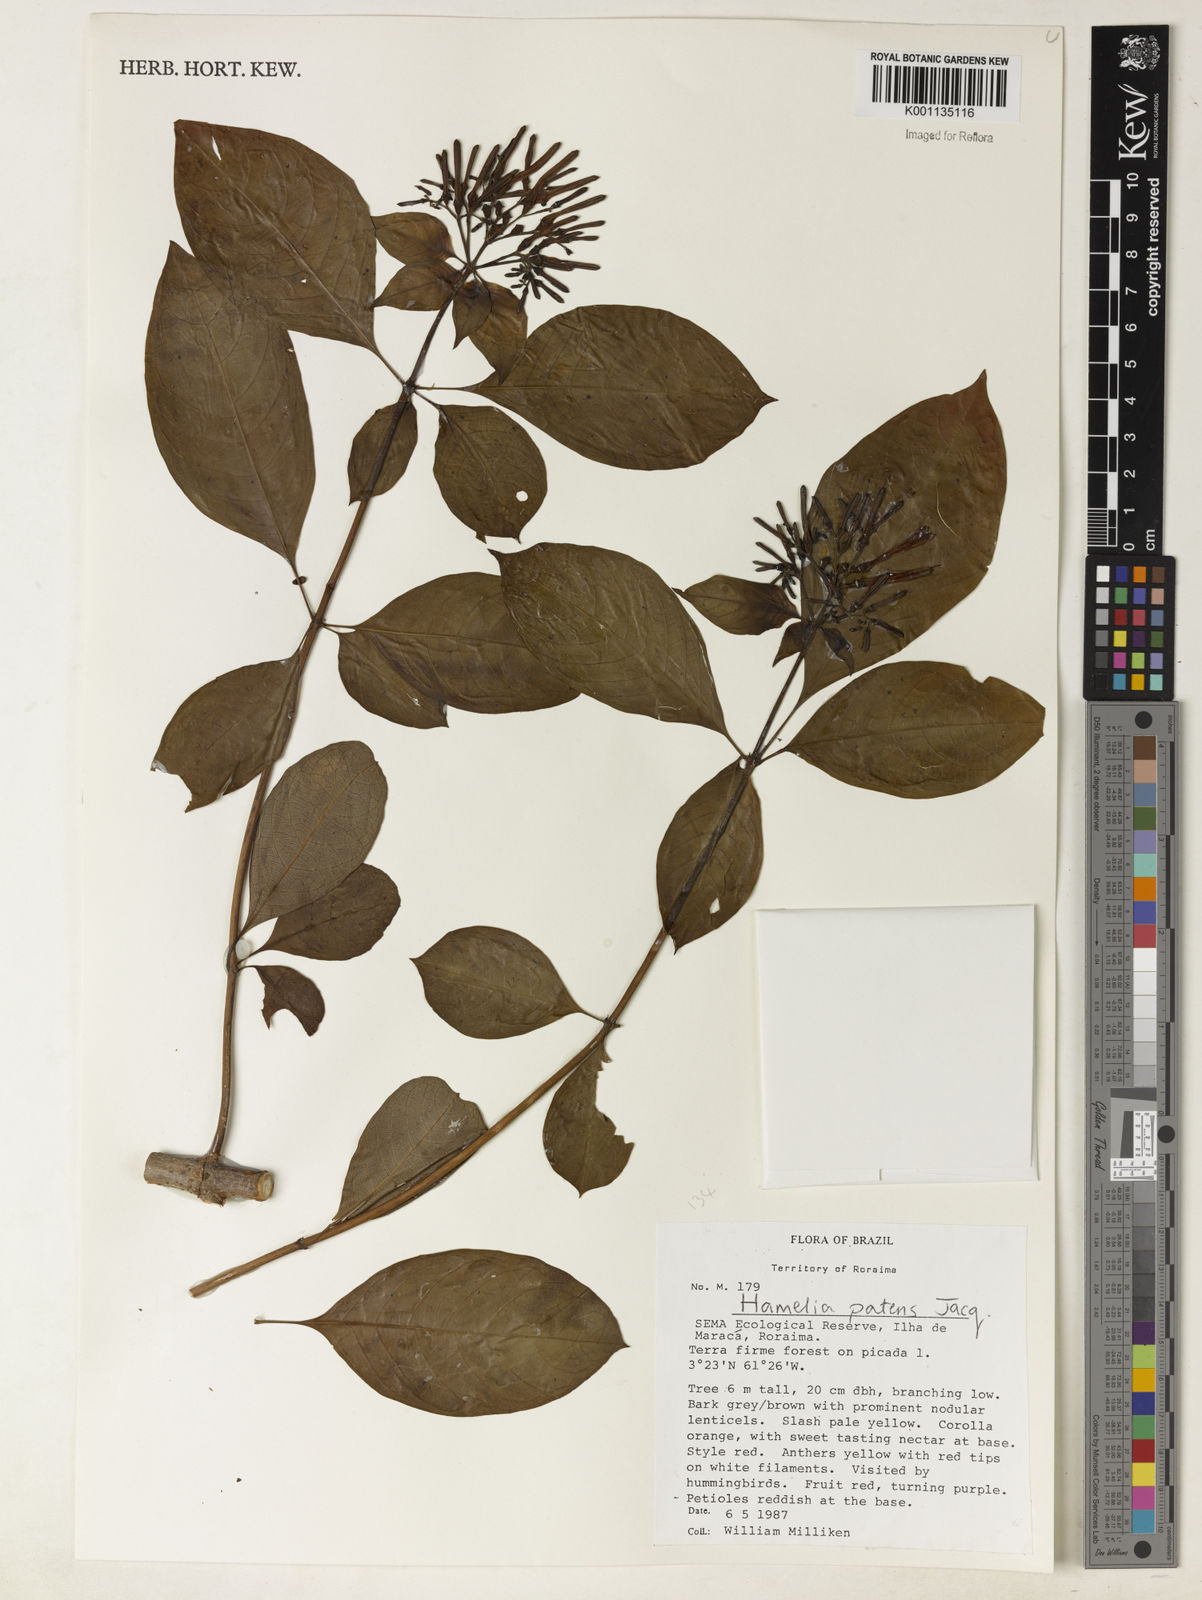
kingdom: Plantae
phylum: Tracheophyta
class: Magnoliopsida
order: Gentianales
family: Rubiaceae
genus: Hamelia
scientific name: Hamelia patens
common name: Redhead
